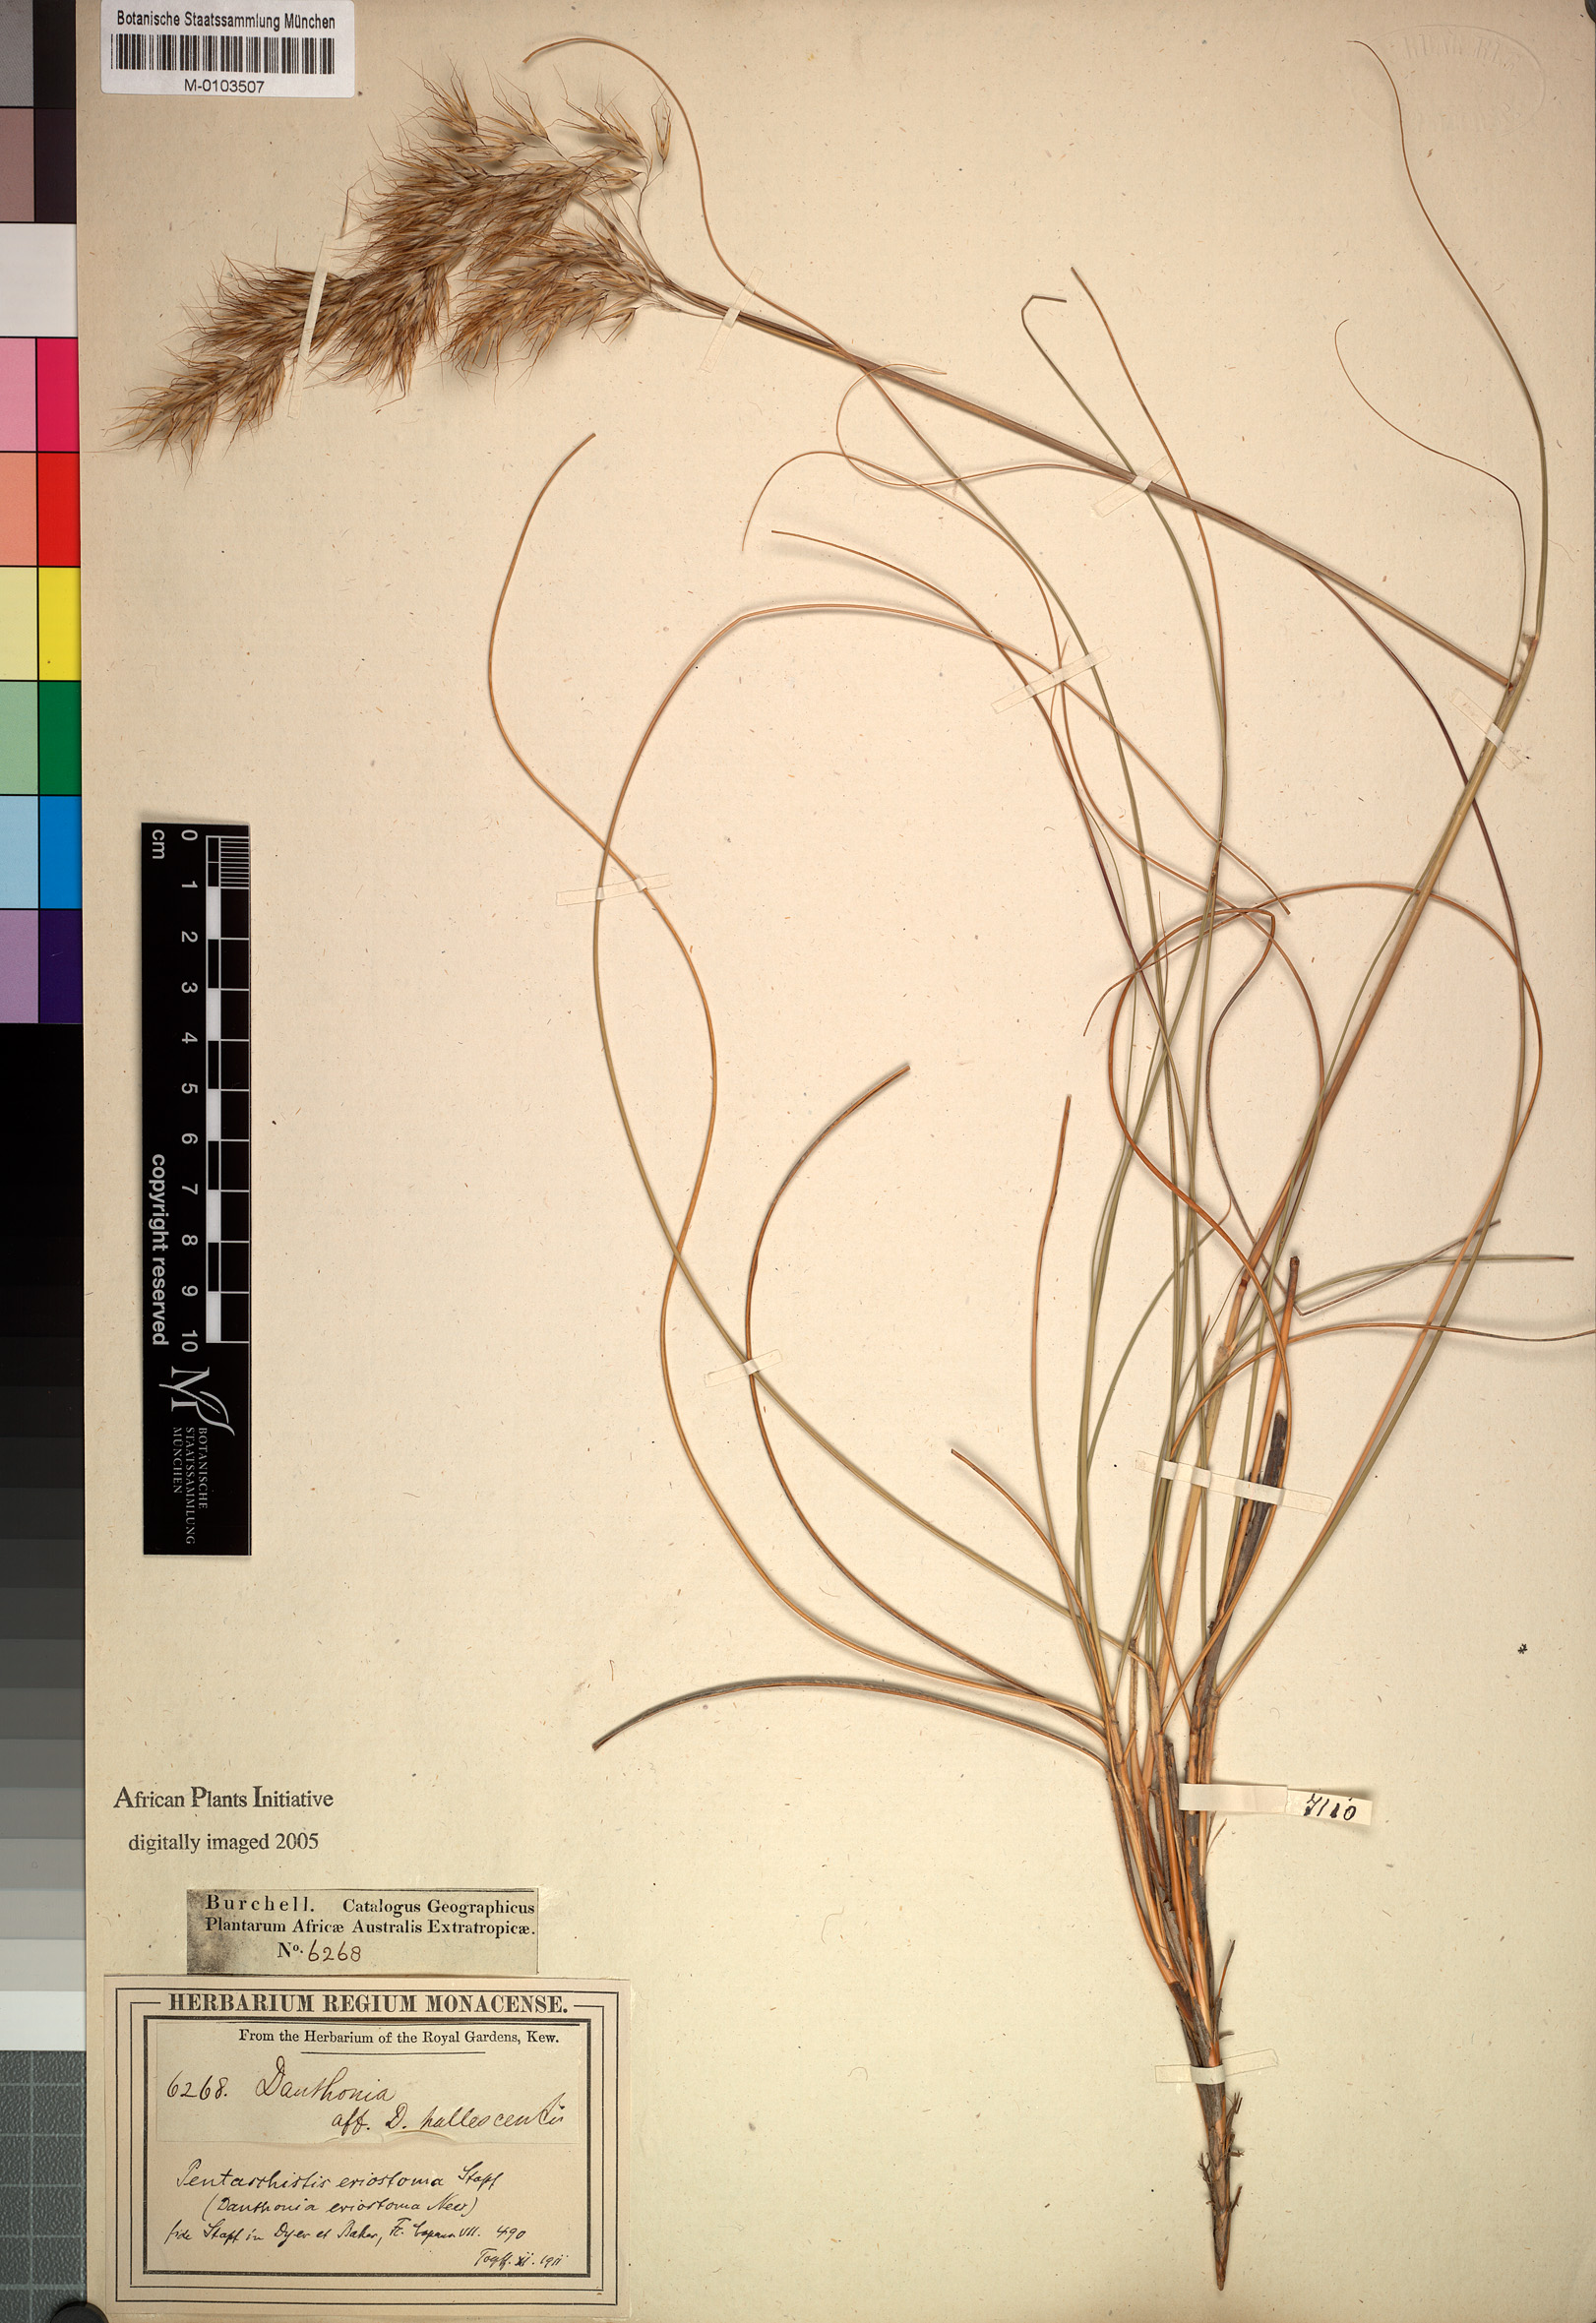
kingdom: Plantae
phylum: Tracheophyta
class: Liliopsida
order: Poales
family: Poaceae
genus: Pentameris
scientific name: Pentameris eriostoma
